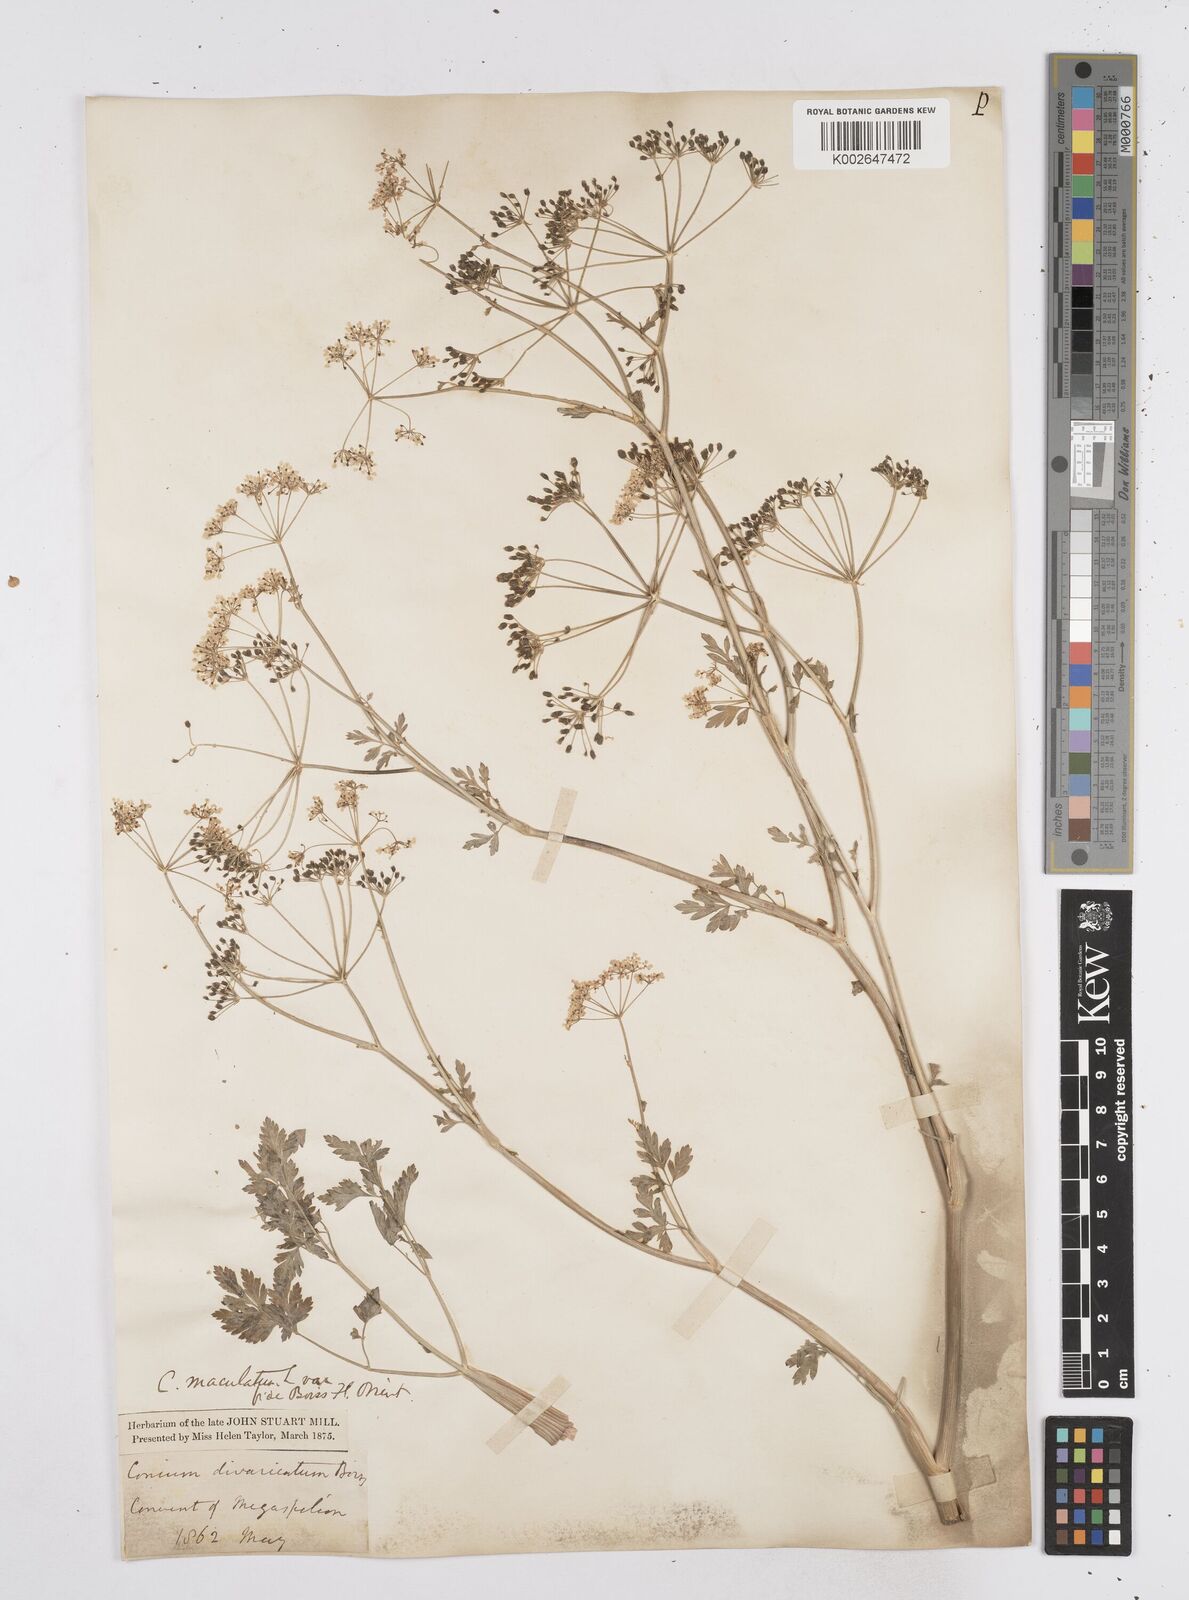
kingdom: Plantae
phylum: Tracheophyta
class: Magnoliopsida
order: Apiales
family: Apiaceae
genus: Conium
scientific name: Conium divaricatum
